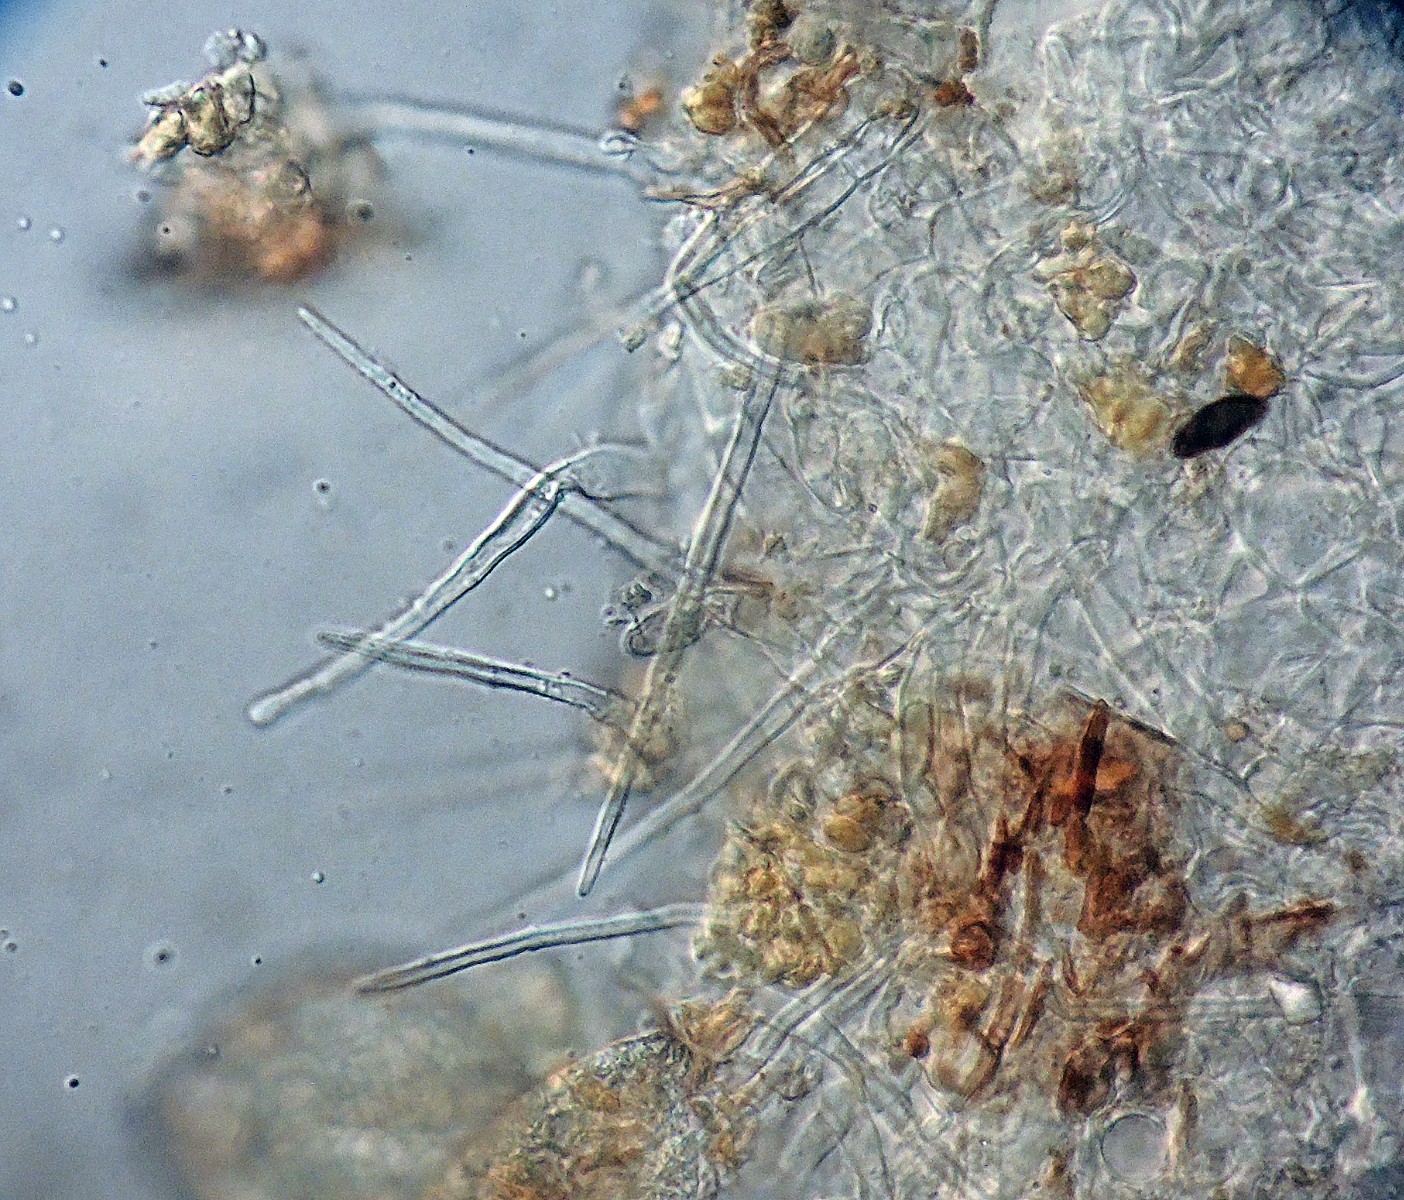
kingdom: Fungi
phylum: Ascomycota
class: Pezizomycetes
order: Pezizales
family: Tuberaceae
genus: Tuber
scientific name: Tuber puberulum
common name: dunet trøffel
